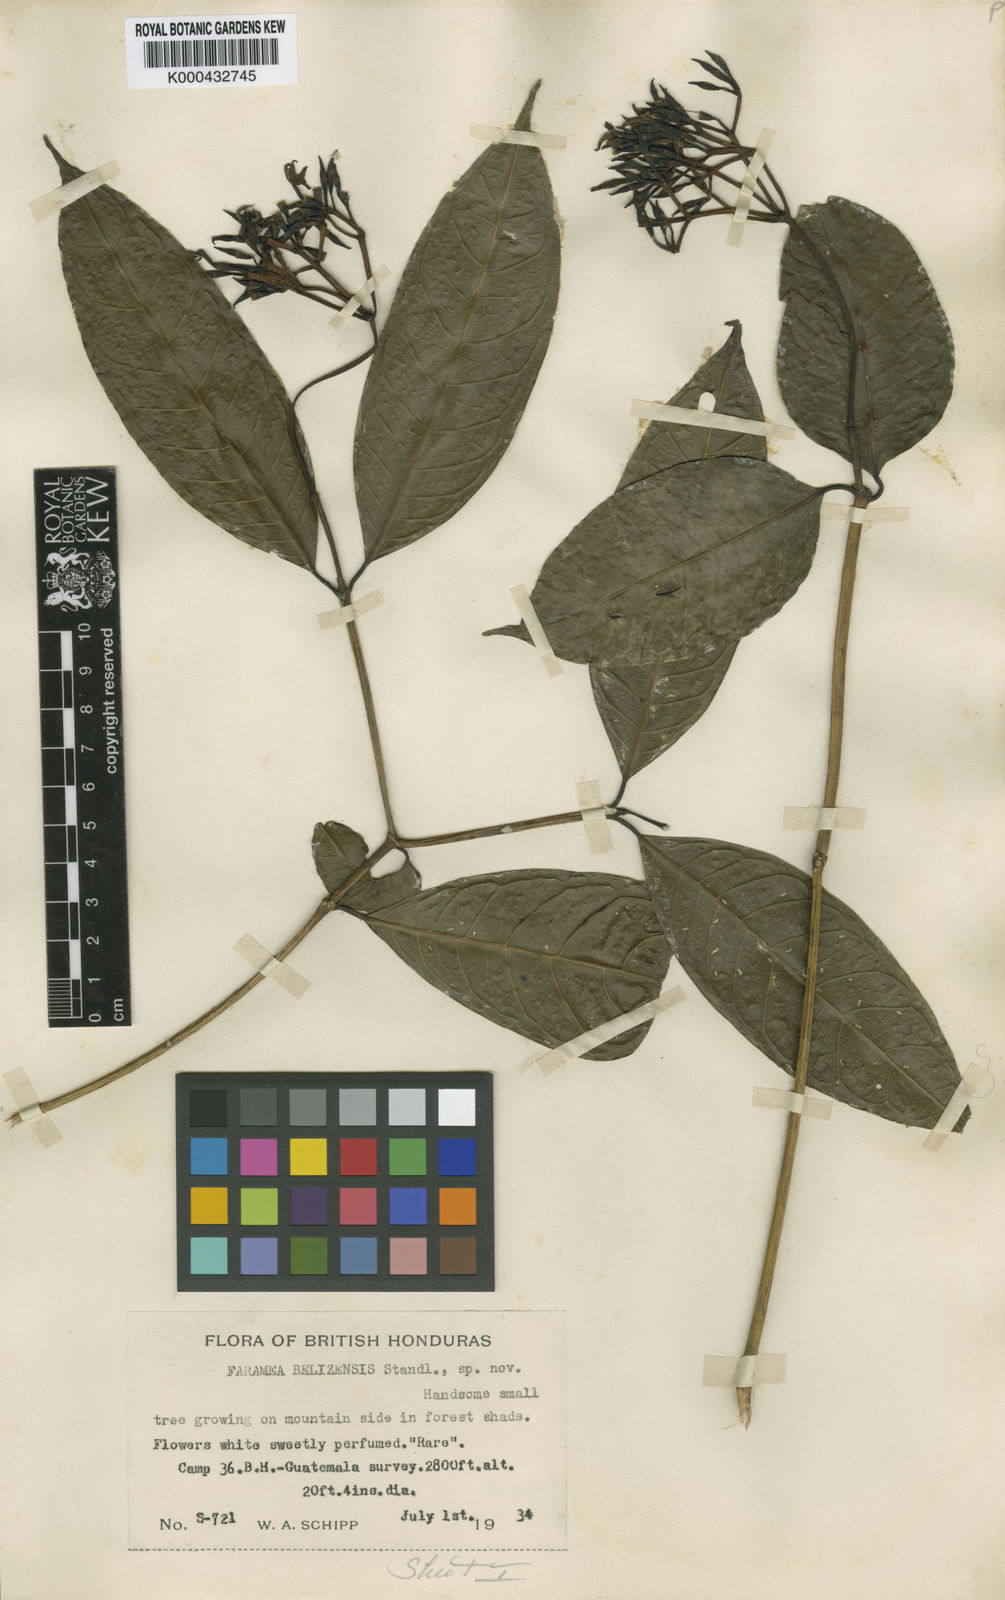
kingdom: Plantae
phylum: Tracheophyta
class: Magnoliopsida
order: Gentianales
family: Rubiaceae
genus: Faramea
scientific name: Faramea belizensis
